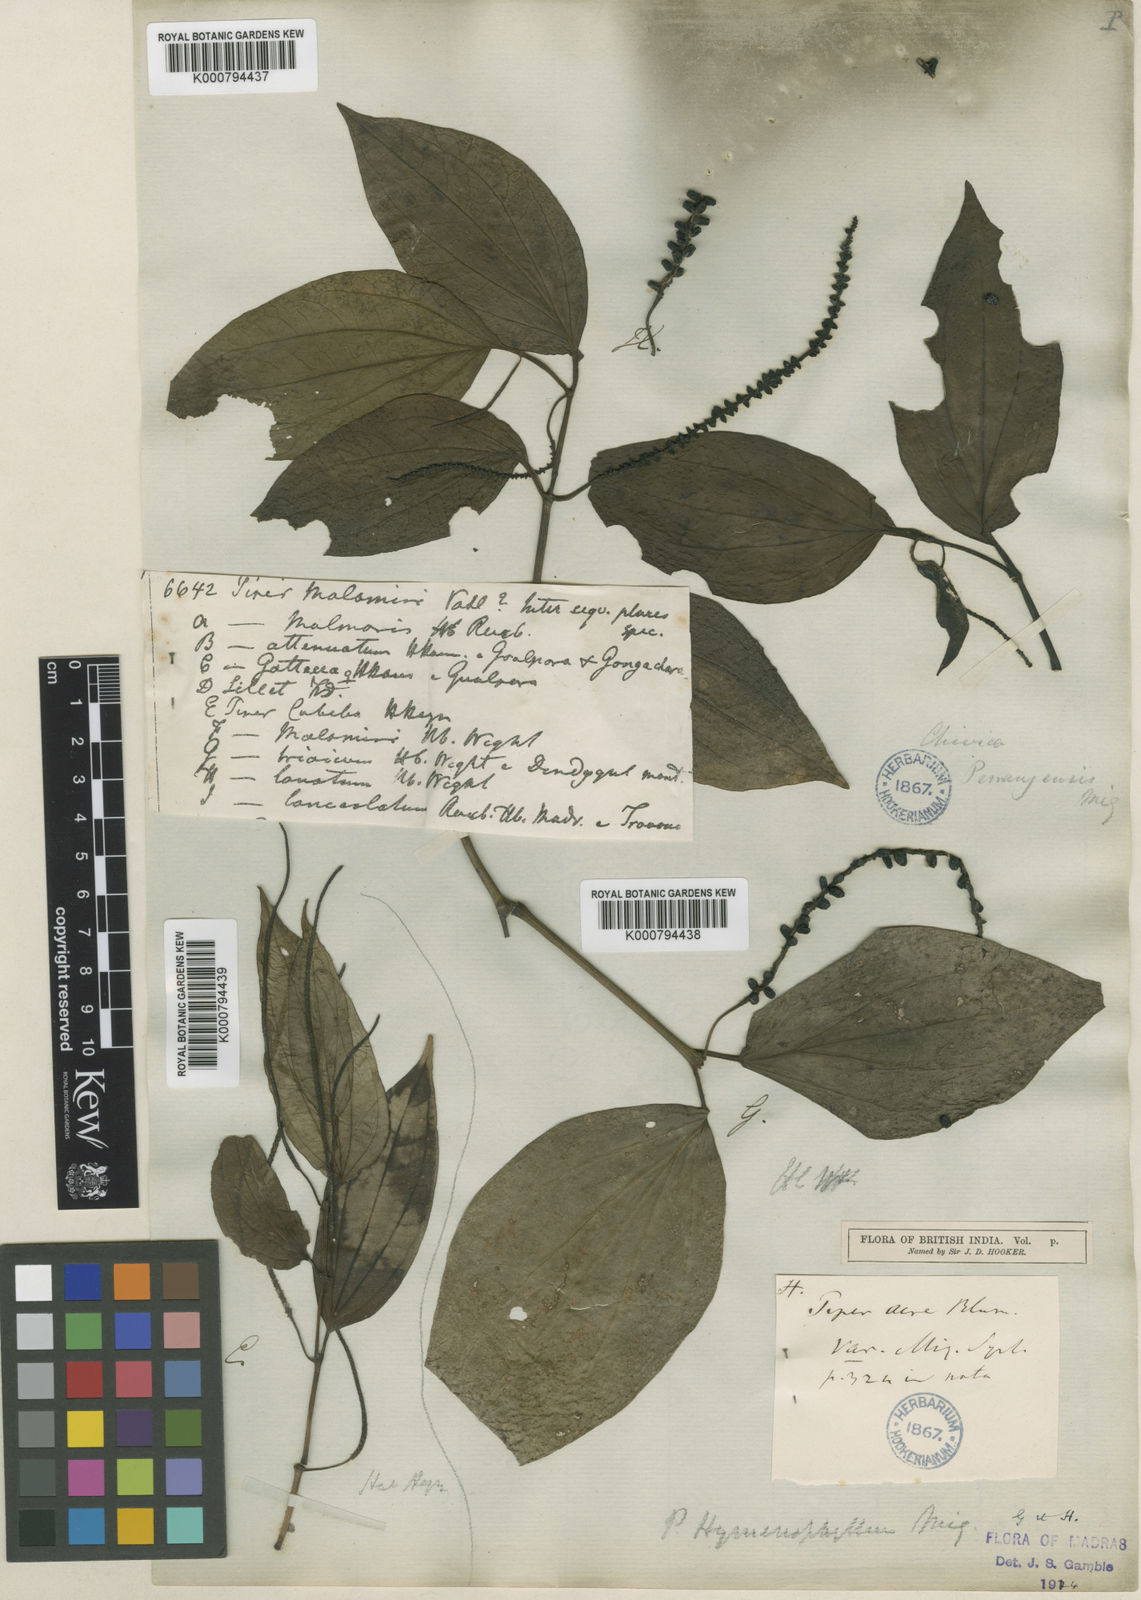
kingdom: Plantae
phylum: Tracheophyta
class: Magnoliopsida
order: Piperales
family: Piperaceae
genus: Piper
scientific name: Piper
